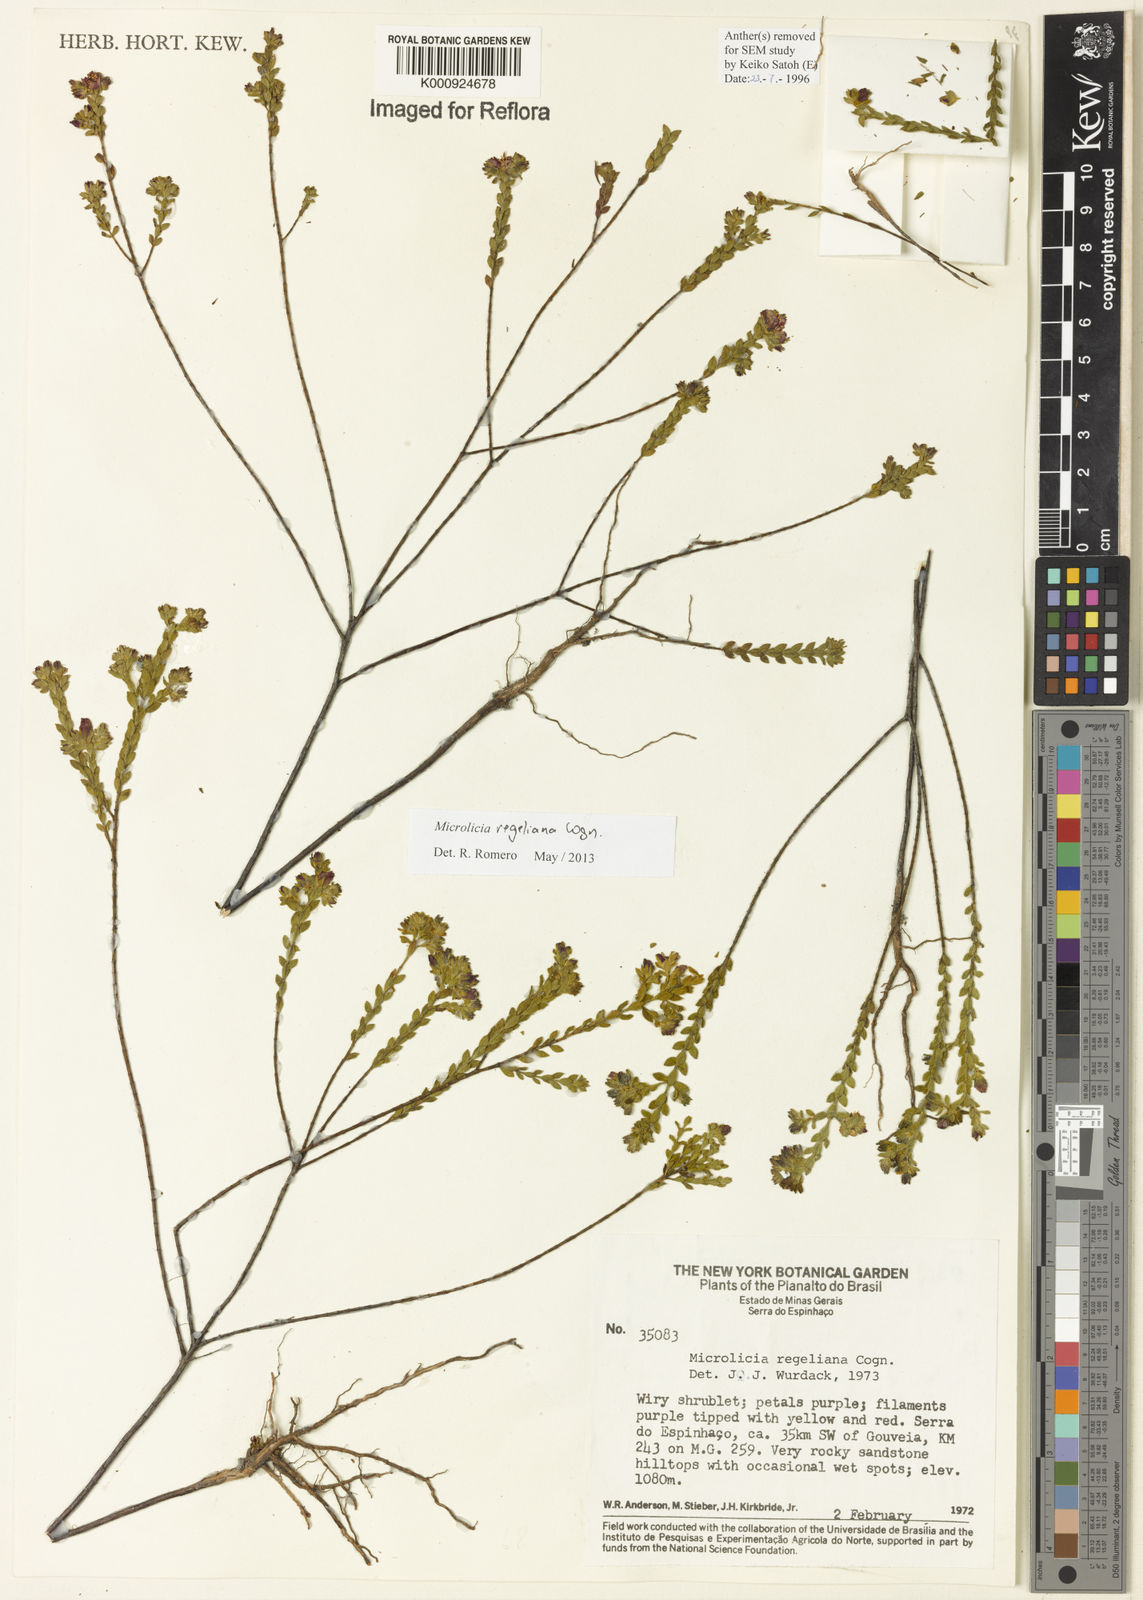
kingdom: Plantae
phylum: Tracheophyta
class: Magnoliopsida
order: Myrtales
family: Melastomataceae
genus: Microlicia
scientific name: Microlicia regeliana
